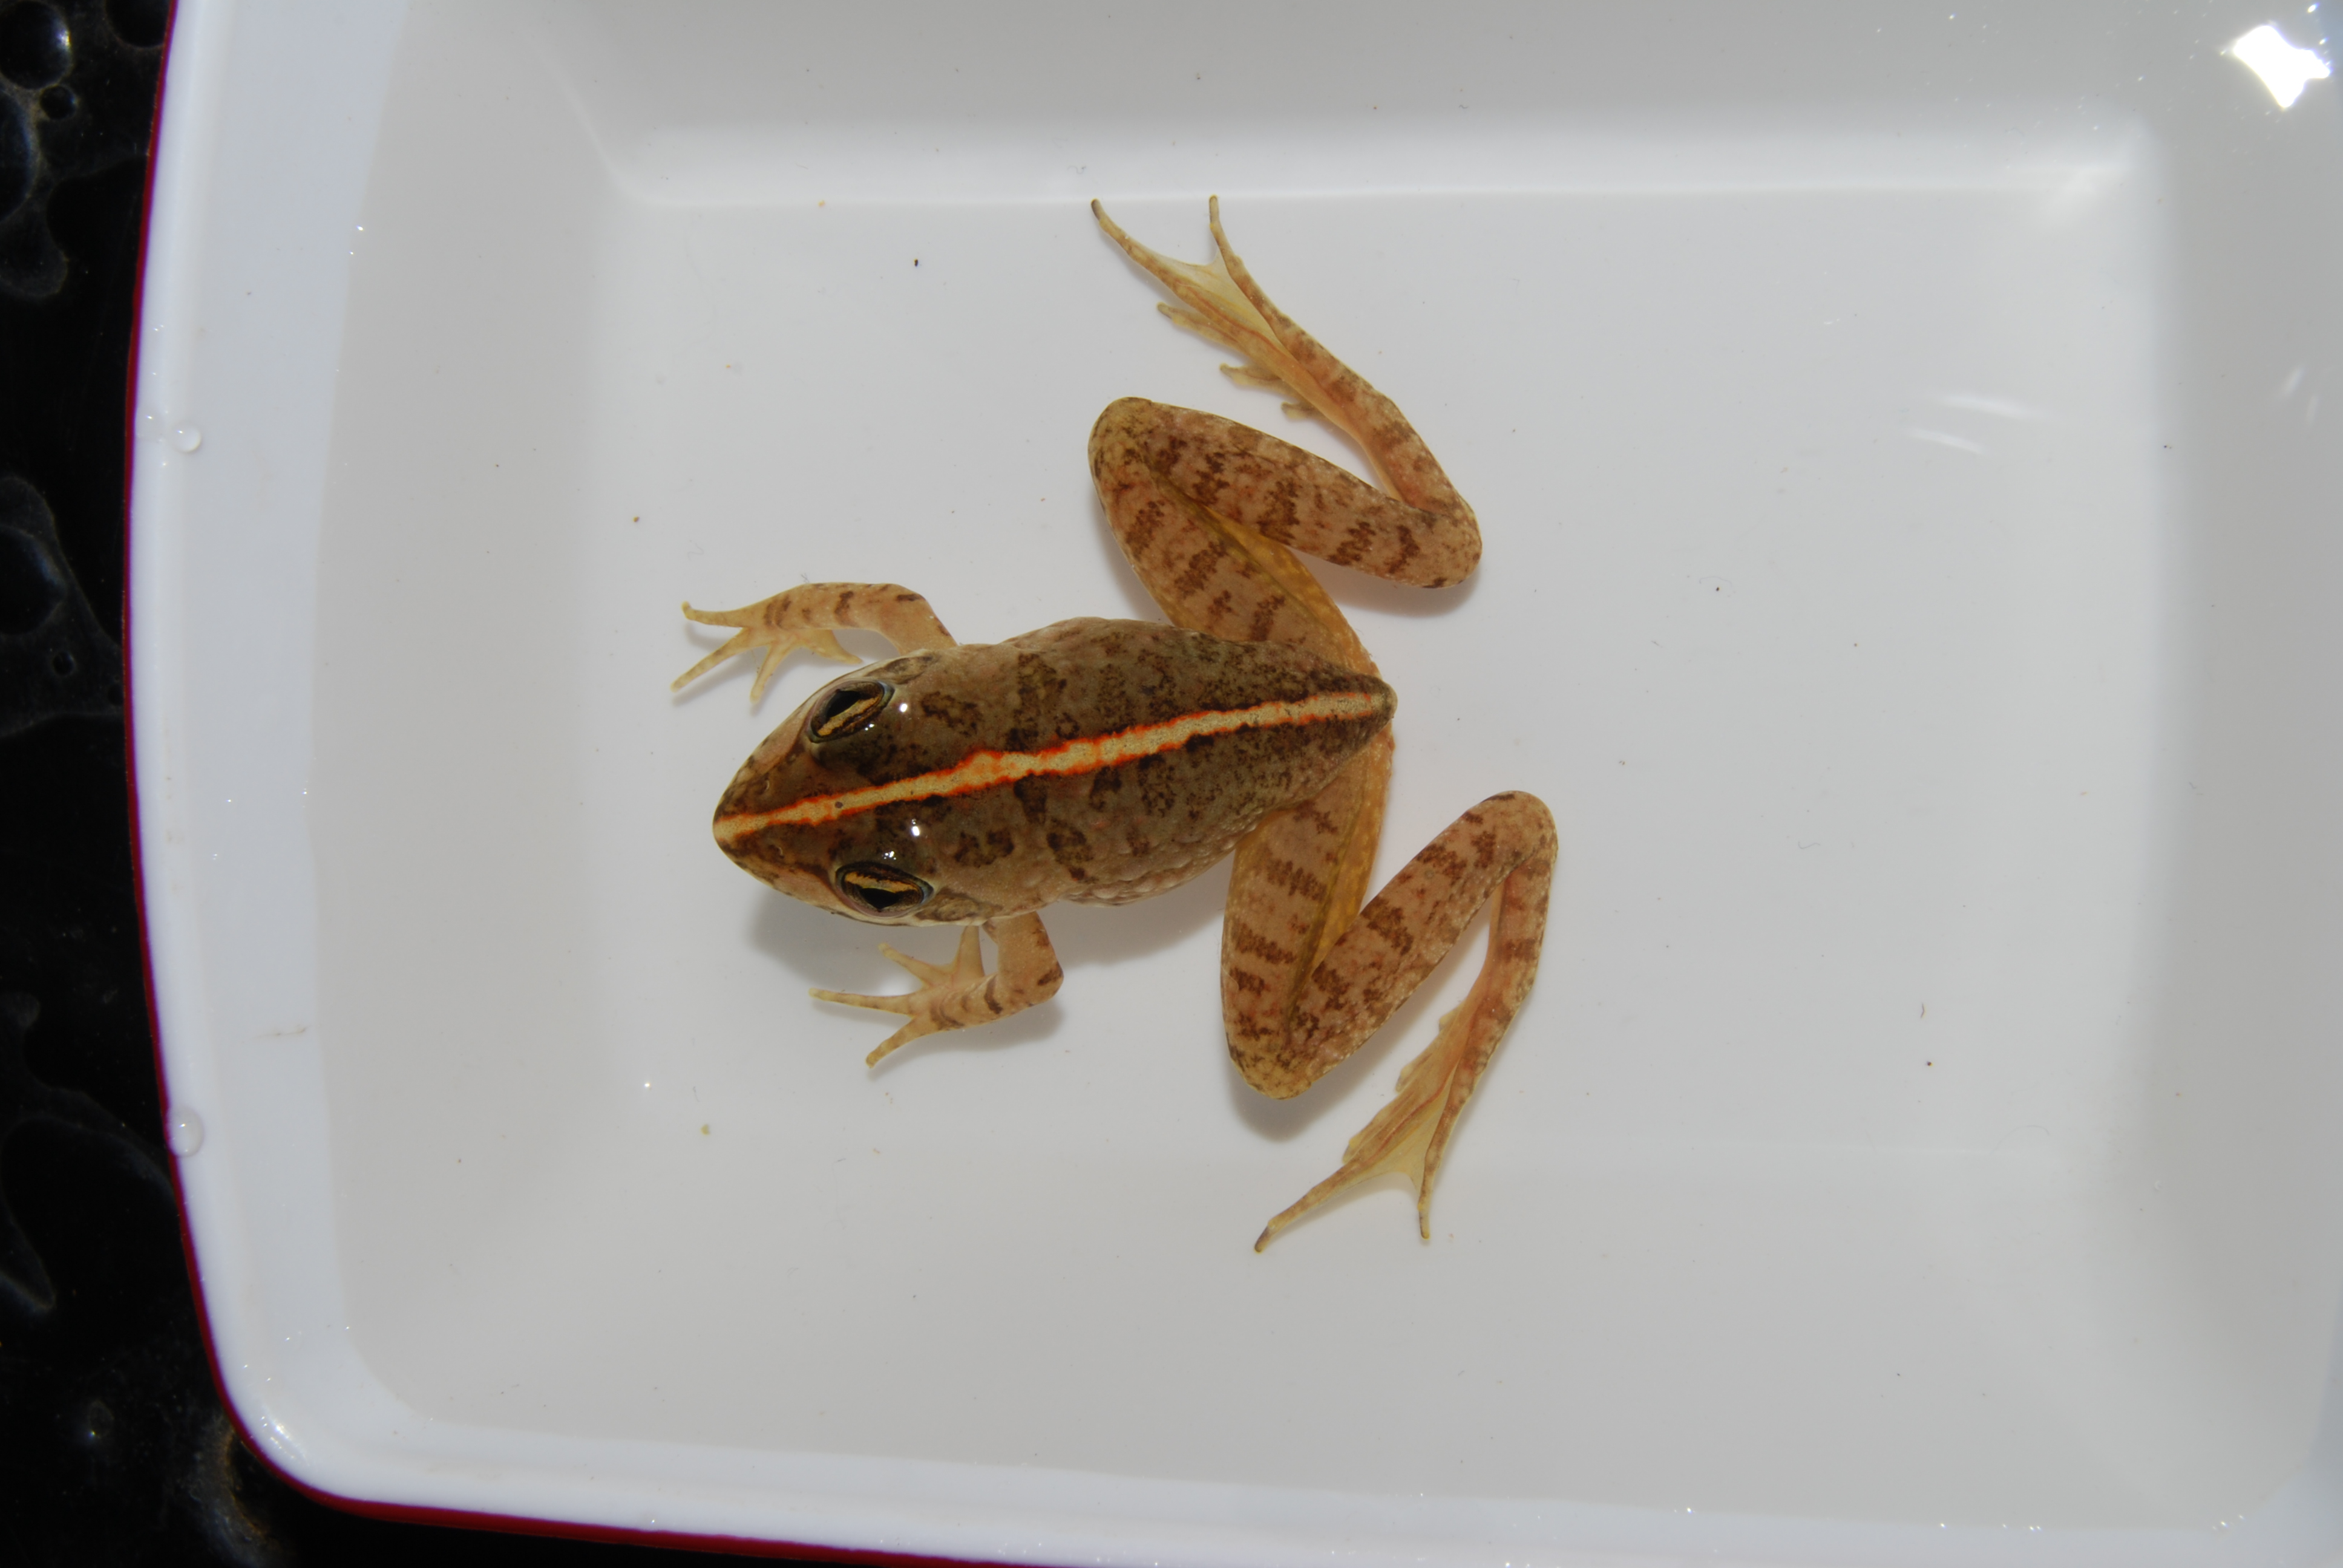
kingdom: Animalia
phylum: Chordata
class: Amphibia
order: Anura
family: Pyxicephalidae
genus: Amietia
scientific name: Amietia fuscigula
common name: Cape rana
